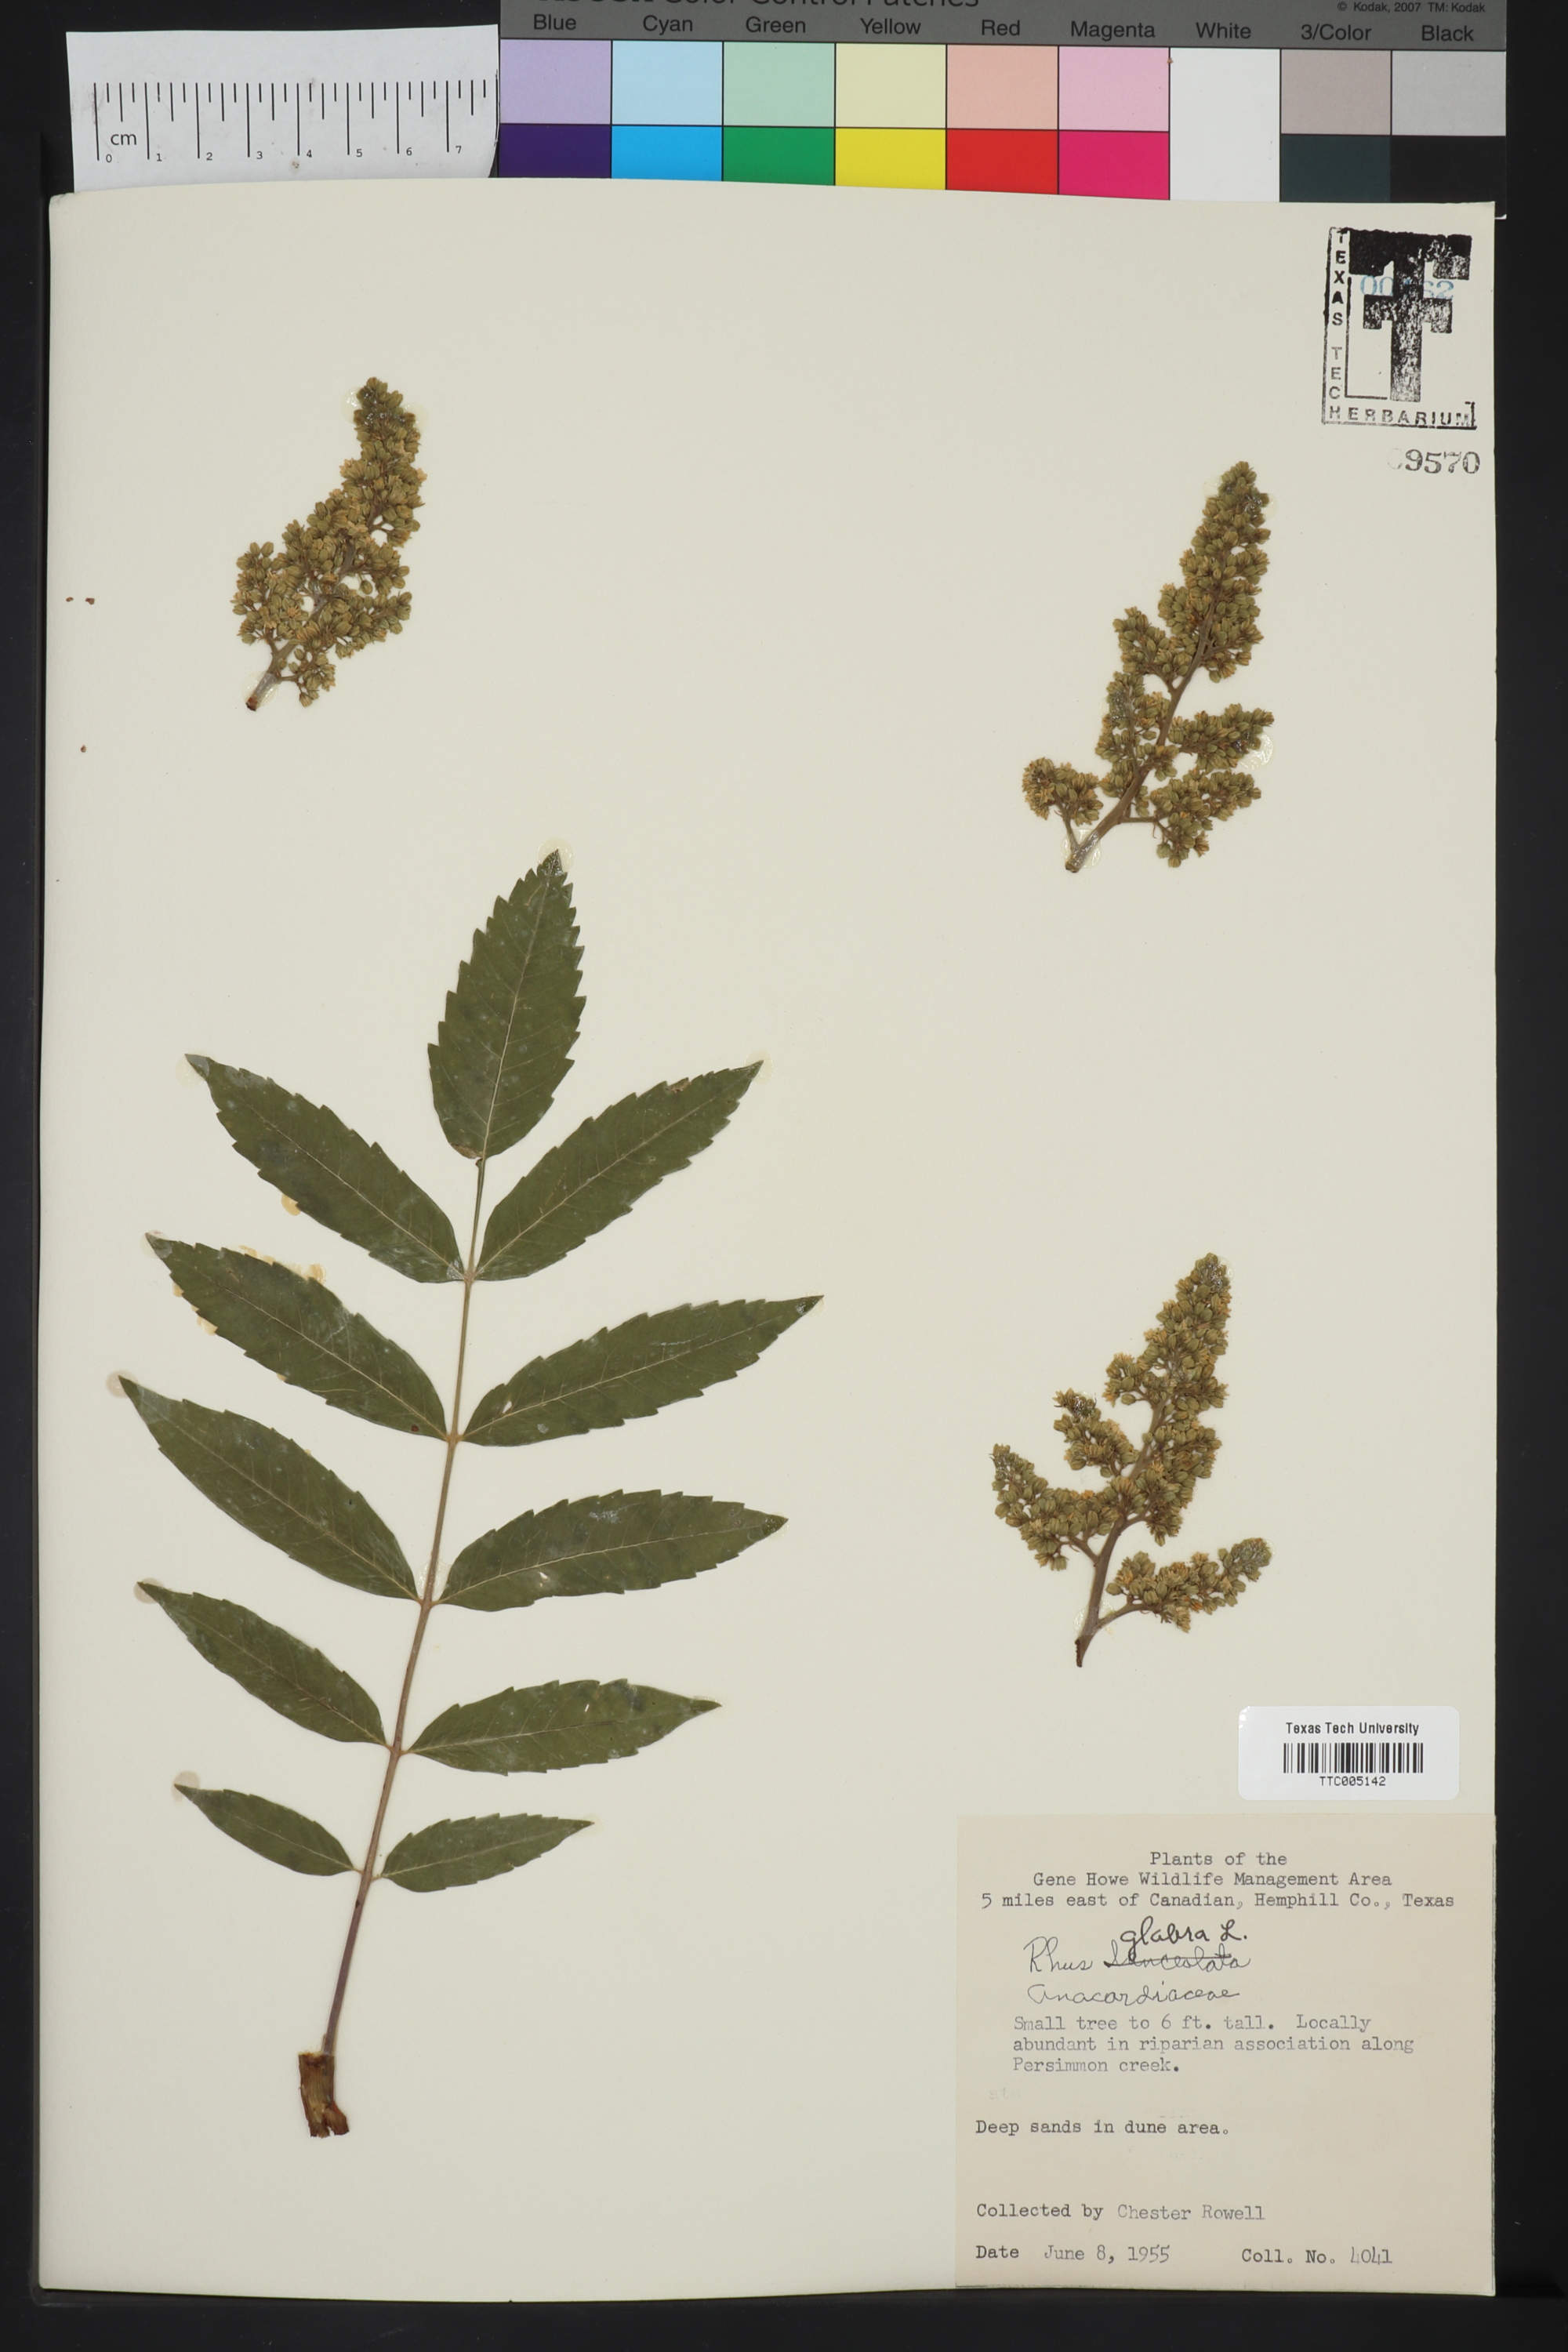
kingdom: Plantae
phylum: Tracheophyta
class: Magnoliopsida
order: Sapindales
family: Anacardiaceae
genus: Rhus
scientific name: Rhus glabra
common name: Scarlet sumac
